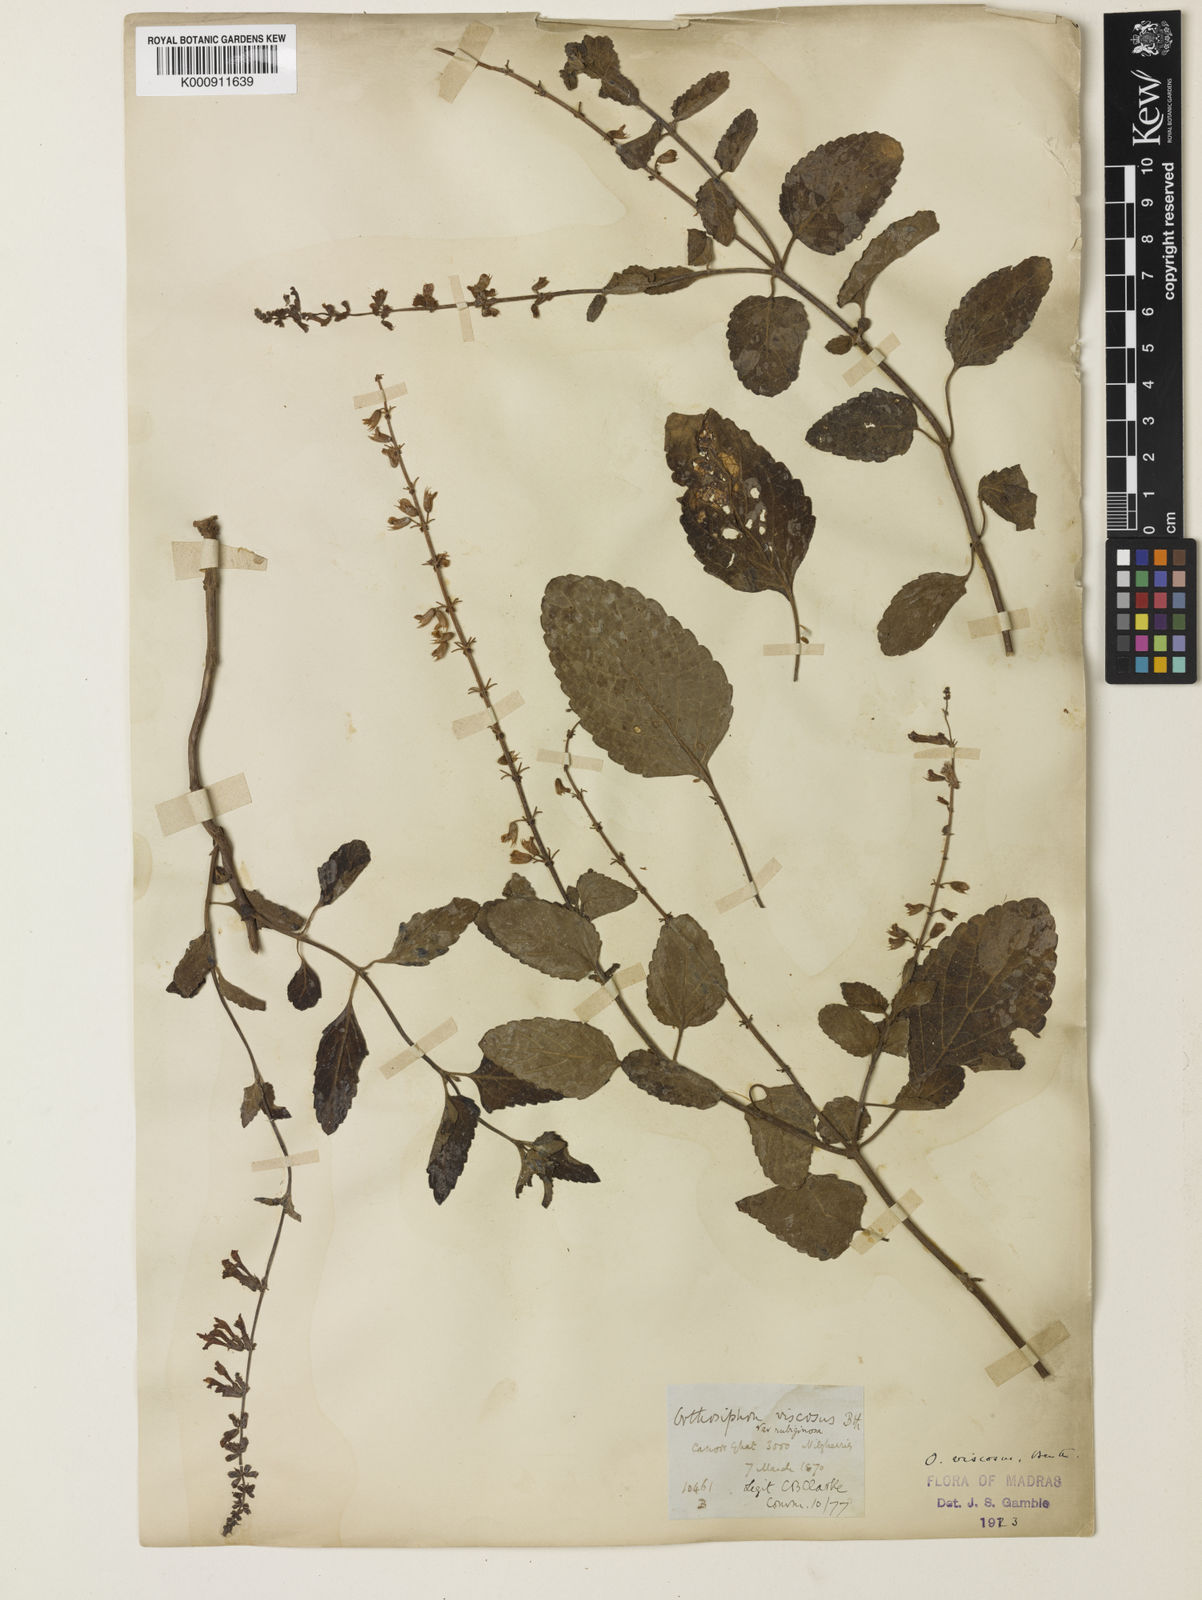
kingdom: Plantae
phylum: Tracheophyta
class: Magnoliopsida
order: Lamiales
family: Lamiaceae
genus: Orthosiphon
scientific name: Orthosiphon thymiflorus
